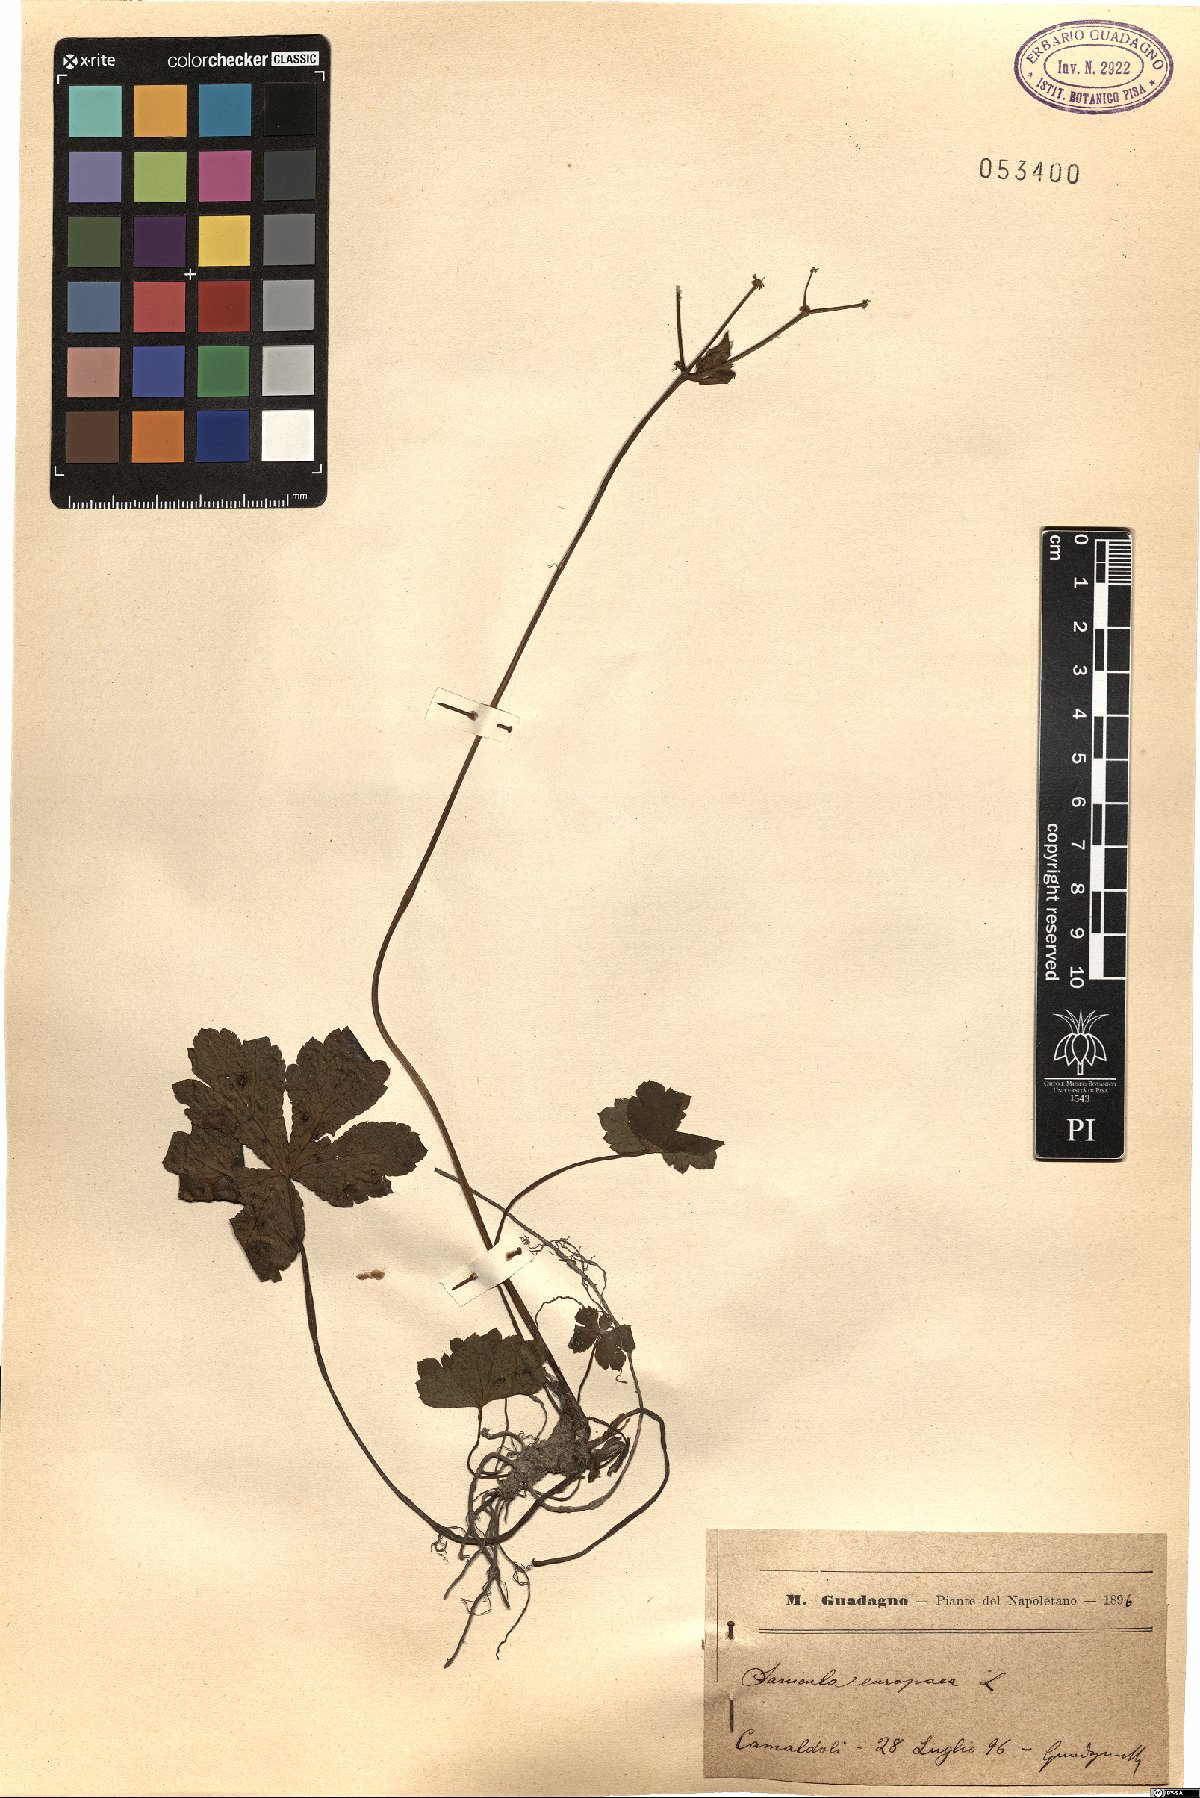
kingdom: Plantae
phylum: Tracheophyta
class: Magnoliopsida
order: Apiales
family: Apiaceae
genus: Sanicula
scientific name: Sanicula europaea
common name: Sanicle
